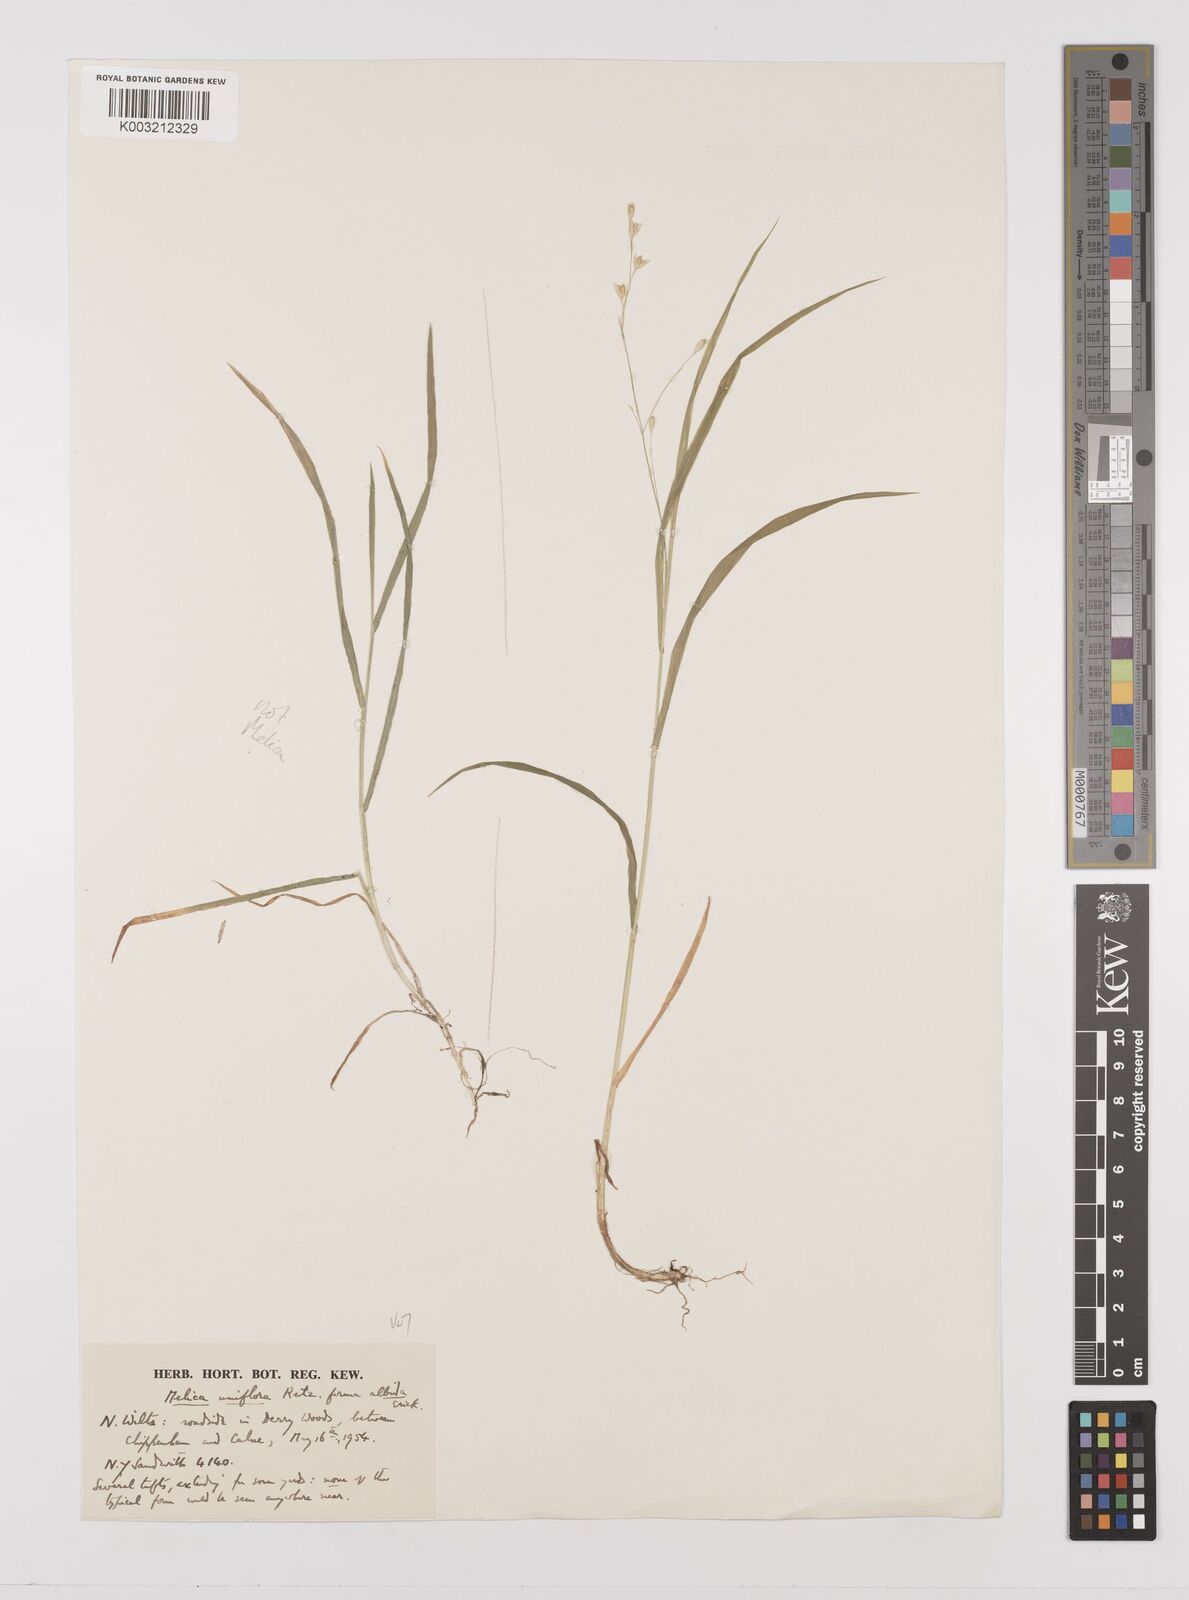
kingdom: Plantae
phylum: Tracheophyta
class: Liliopsida
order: Poales
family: Poaceae
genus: Melica
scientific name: Melica uniflora
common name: Wood melick
